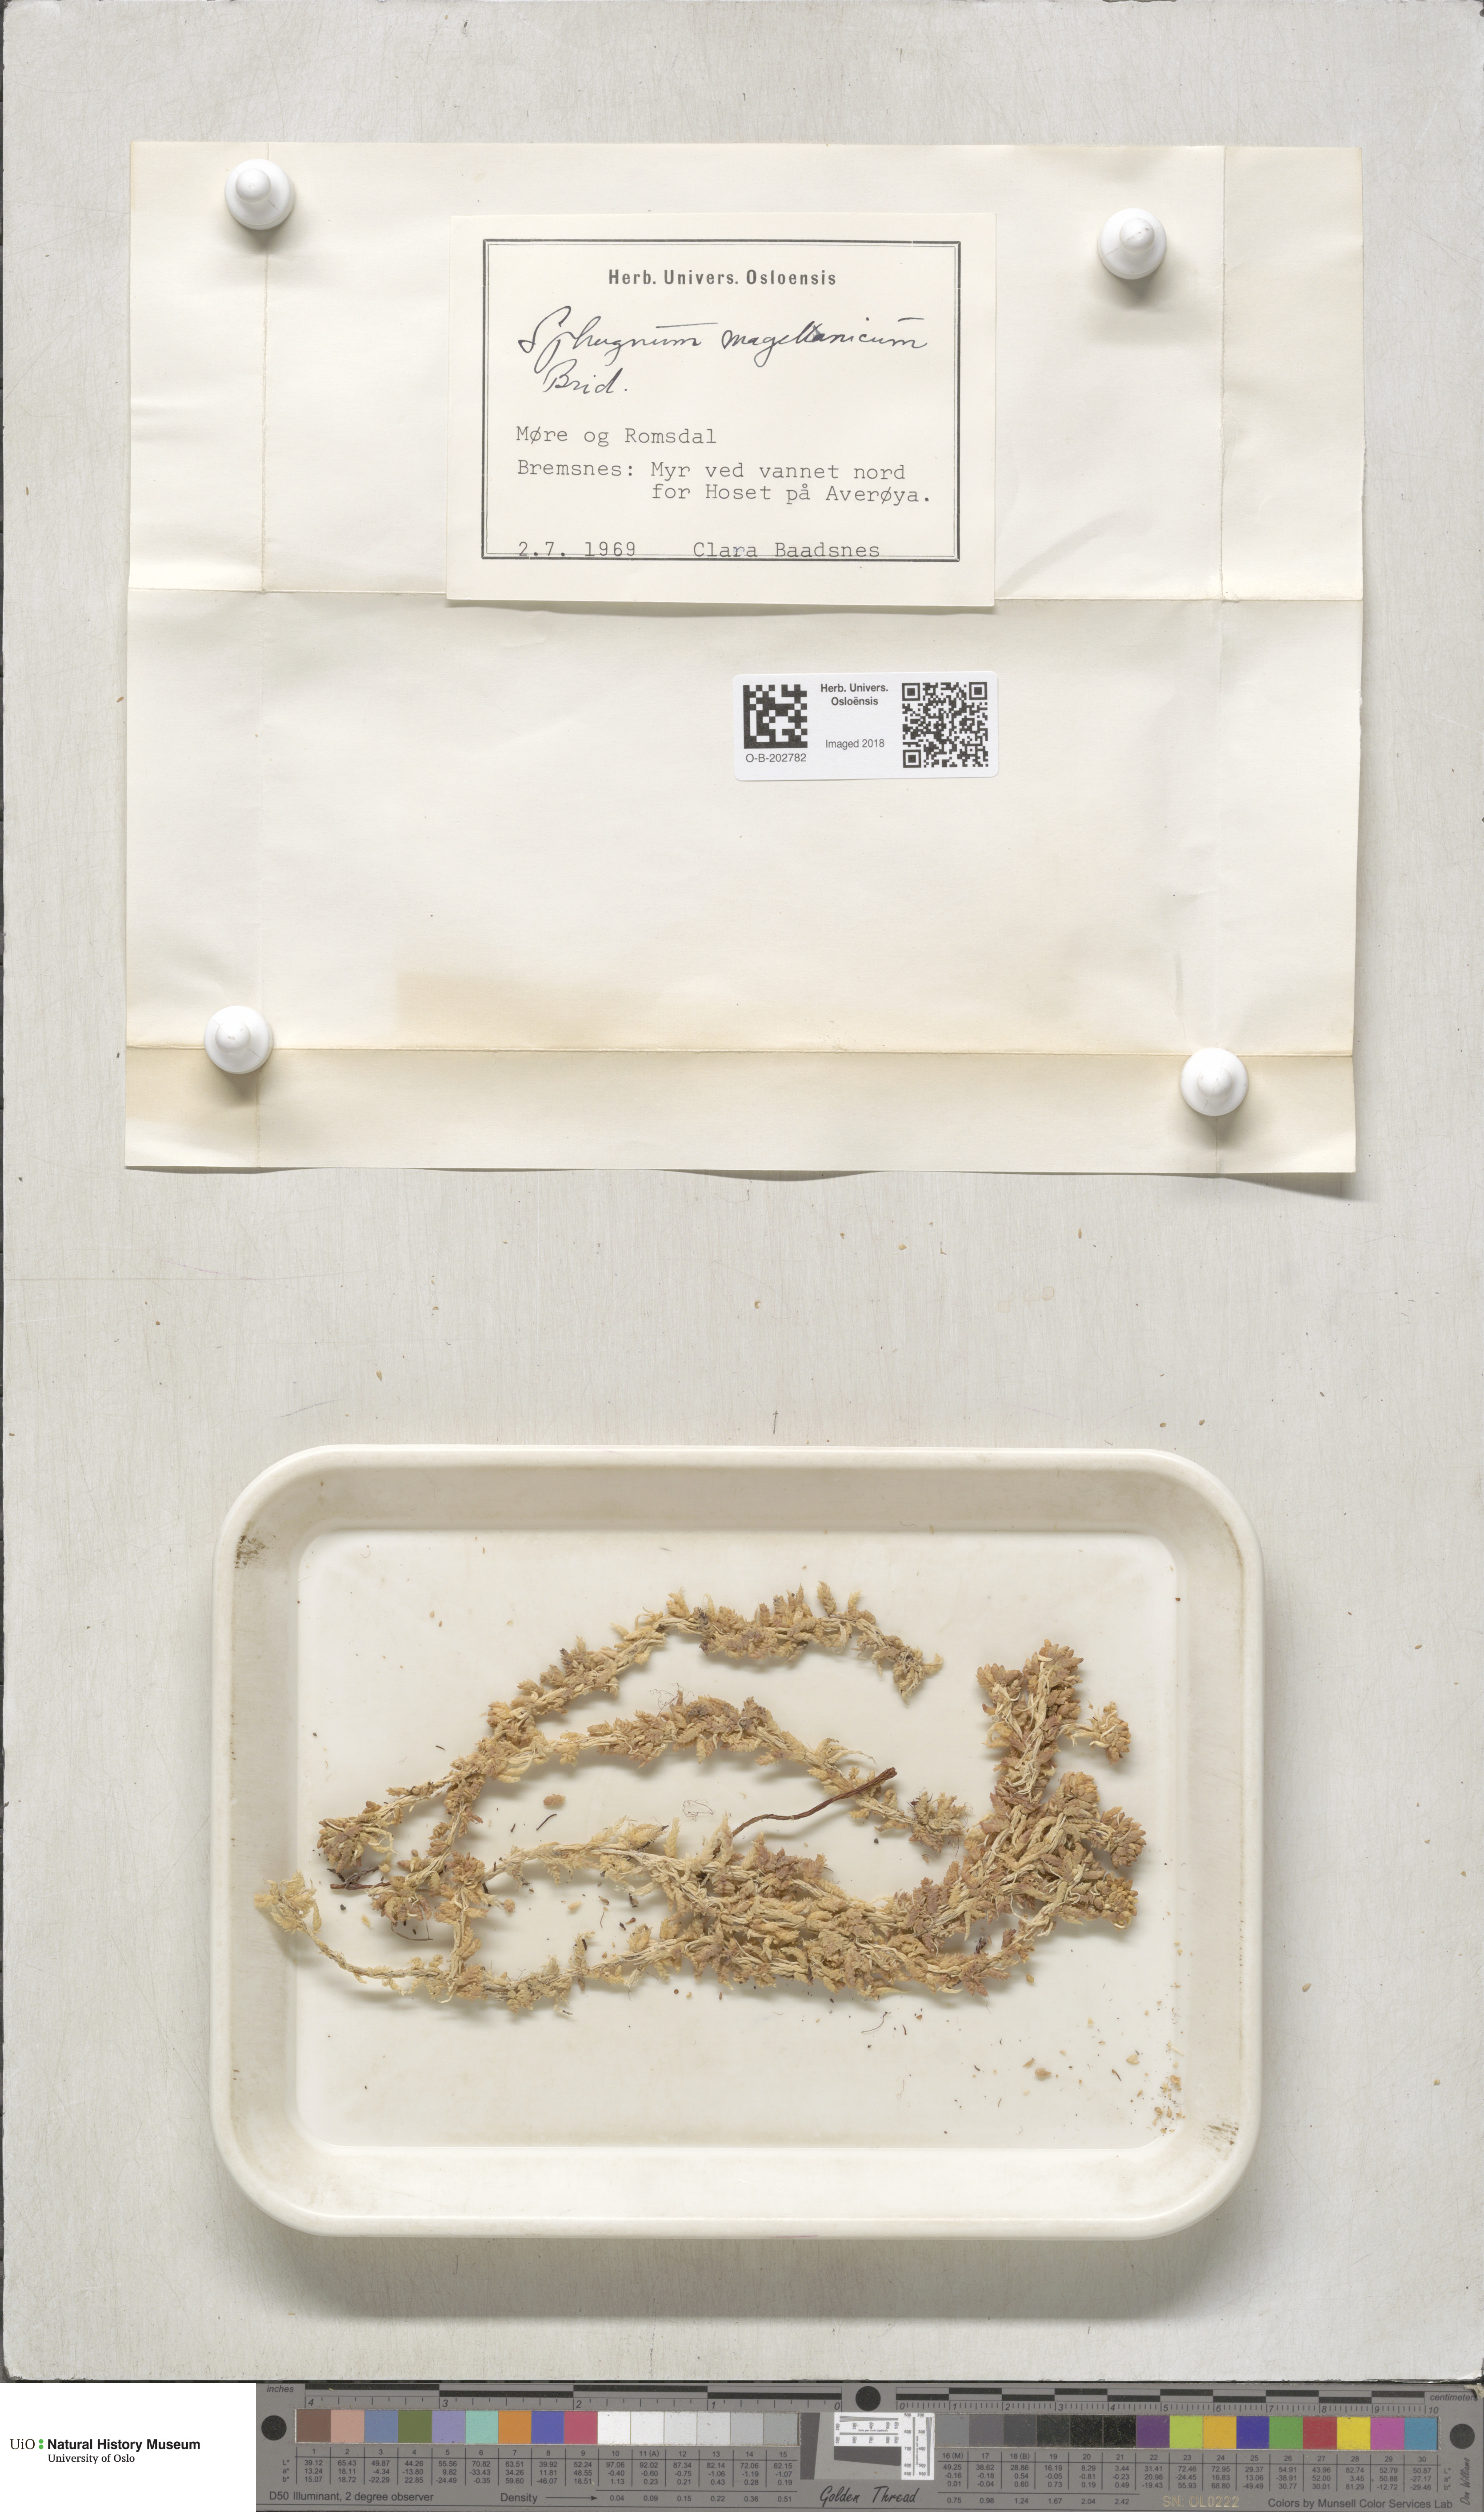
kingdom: Plantae
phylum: Bryophyta
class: Sphagnopsida
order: Sphagnales
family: Sphagnaceae
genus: Sphagnum
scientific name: Sphagnum magellanicum
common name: Magellan's peat moss
